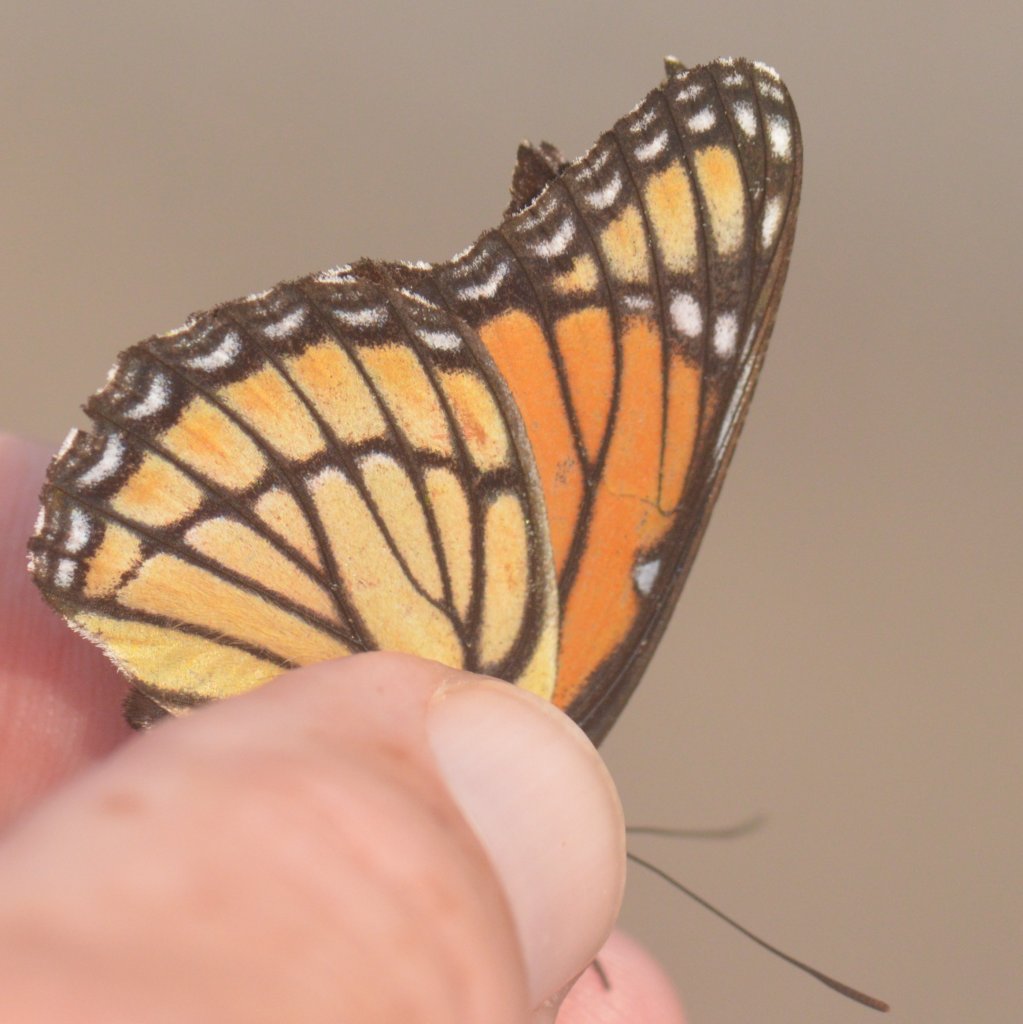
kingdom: Animalia
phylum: Arthropoda
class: Insecta
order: Lepidoptera
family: Nymphalidae
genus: Limenitis
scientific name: Limenitis archippus
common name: Viceroy
